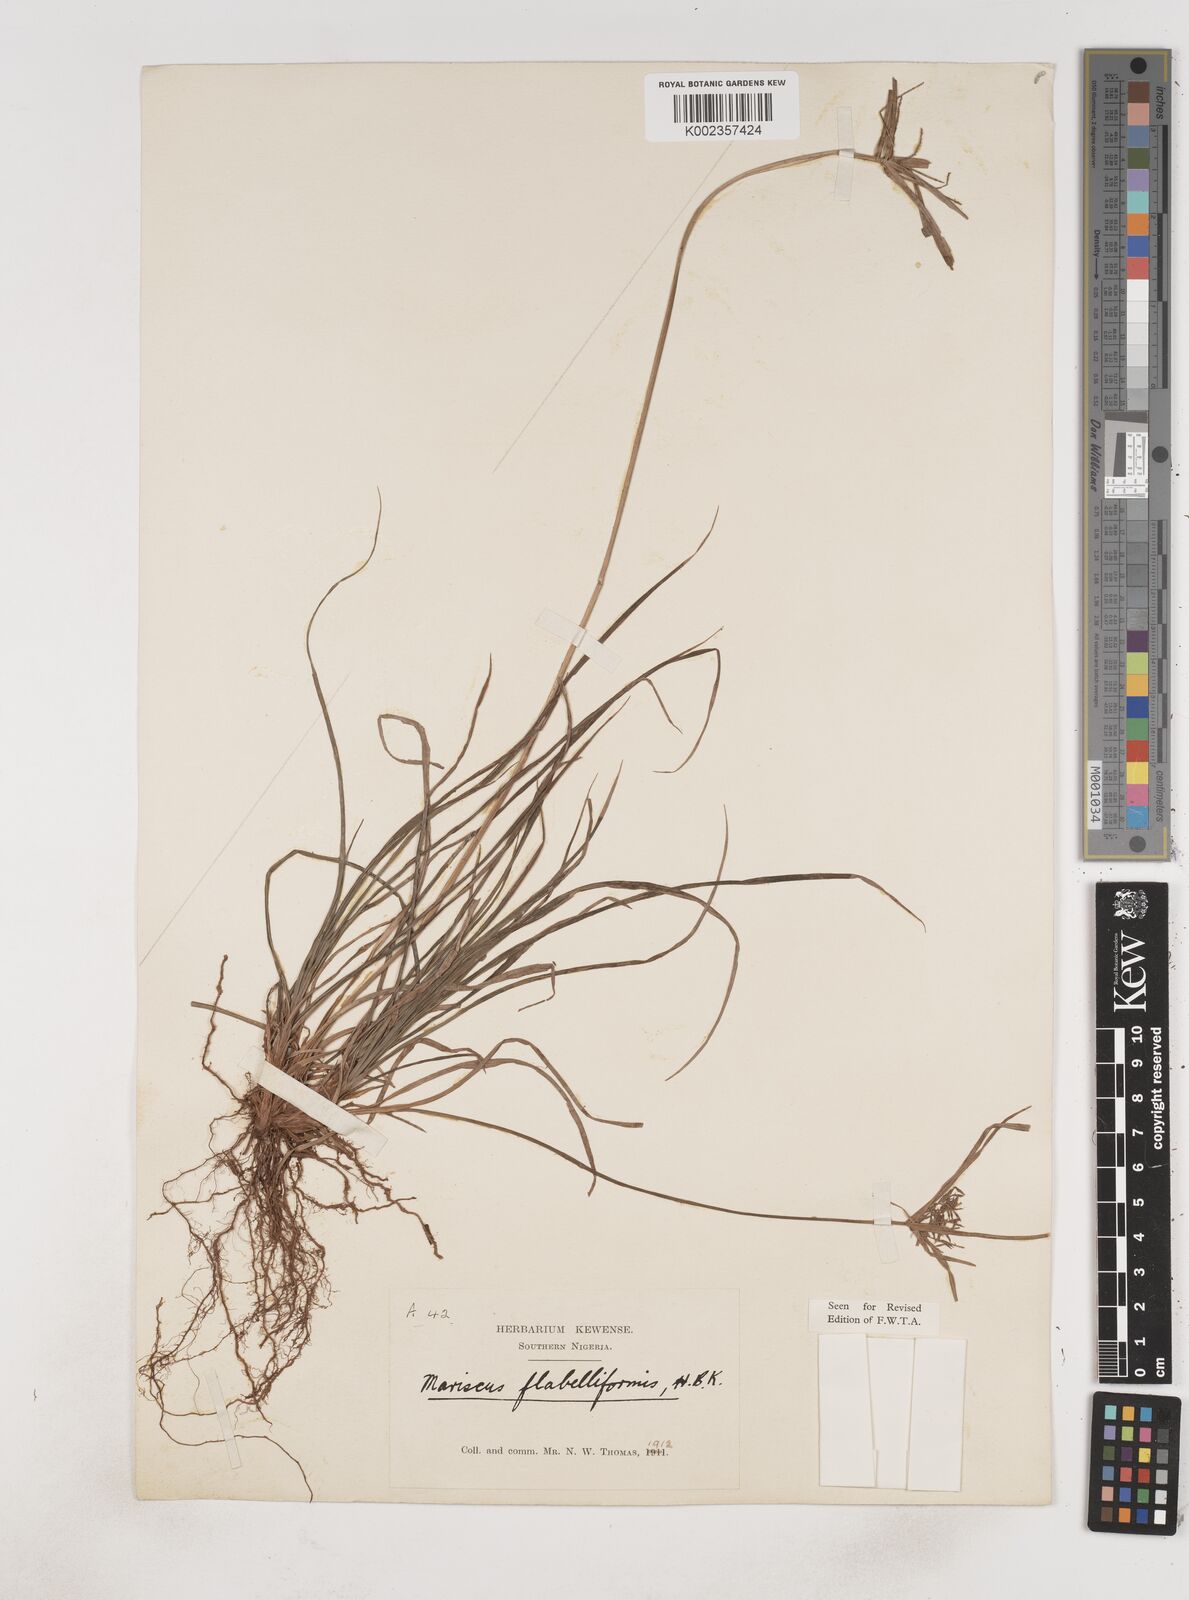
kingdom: Plantae
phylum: Tracheophyta
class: Liliopsida
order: Poales
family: Cyperaceae
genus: Cyperus
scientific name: Cyperus tenuis
